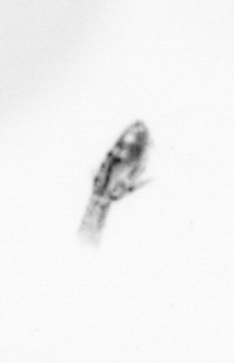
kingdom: Animalia
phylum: Arthropoda
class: Copepoda
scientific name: Copepoda
